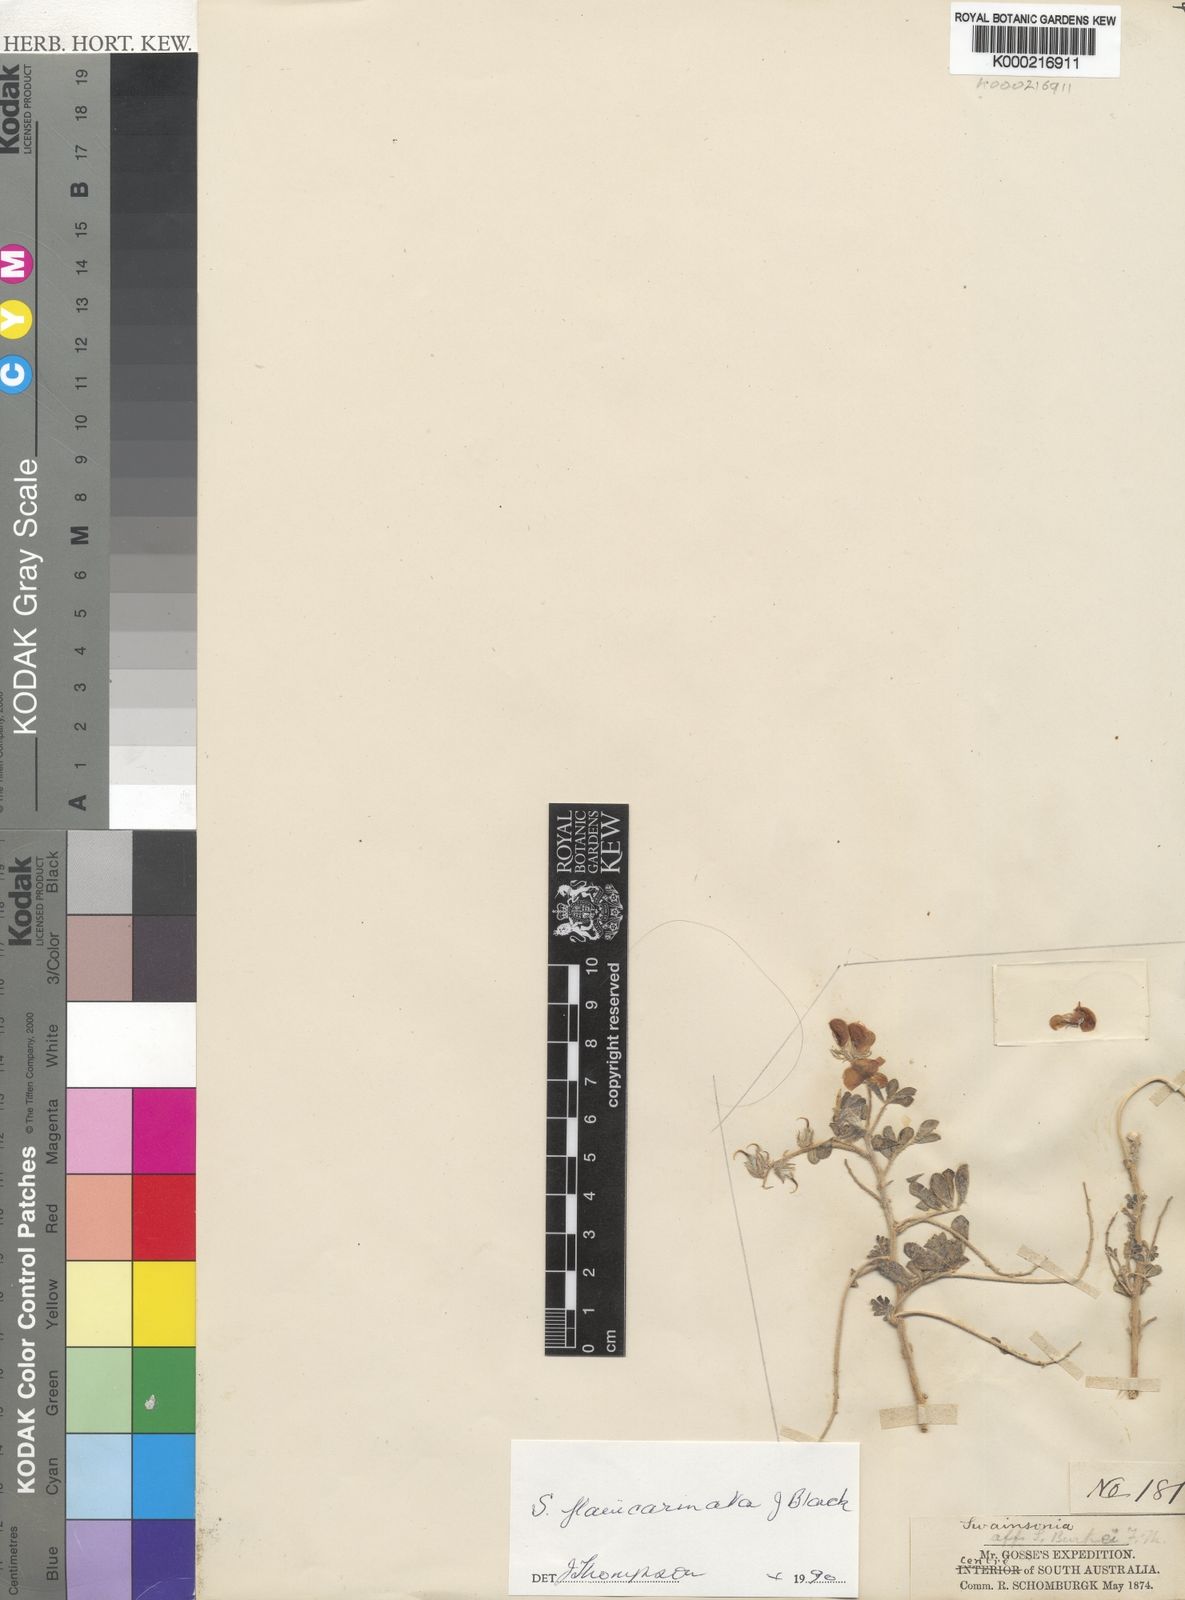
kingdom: Plantae
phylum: Tracheophyta
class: Magnoliopsida
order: Fabales
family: Fabaceae
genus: Swainsona
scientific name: Swainsona flavicarinata
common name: Yellow-keel swainsona
